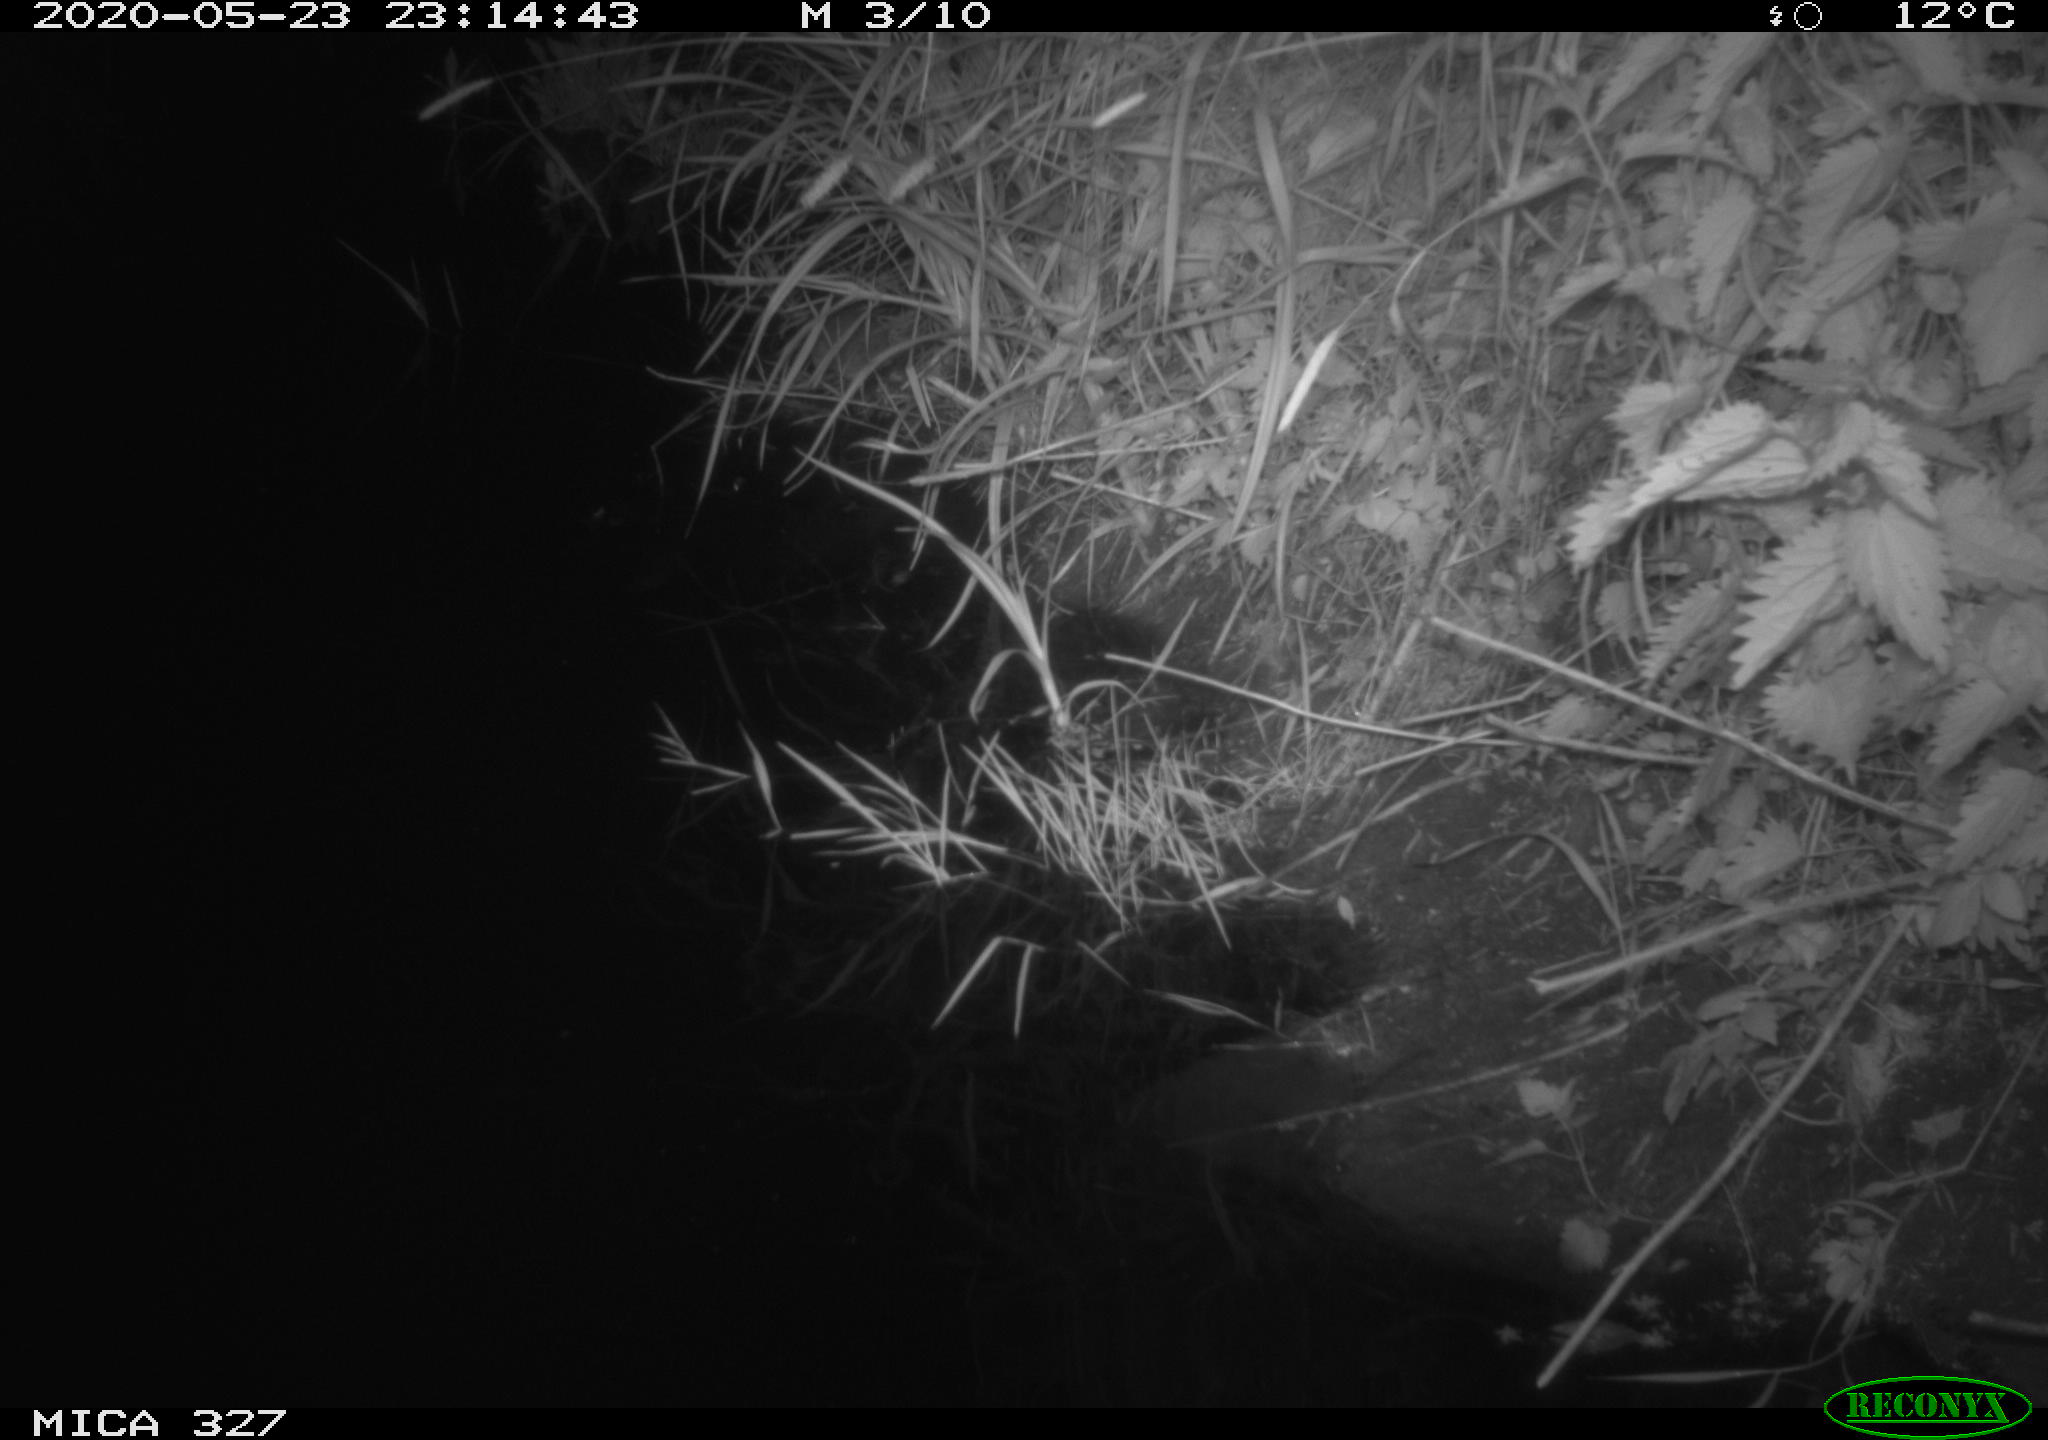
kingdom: Animalia
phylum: Chordata
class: Mammalia
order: Rodentia
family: Muridae
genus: Rattus
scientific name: Rattus norvegicus
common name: Brown rat
